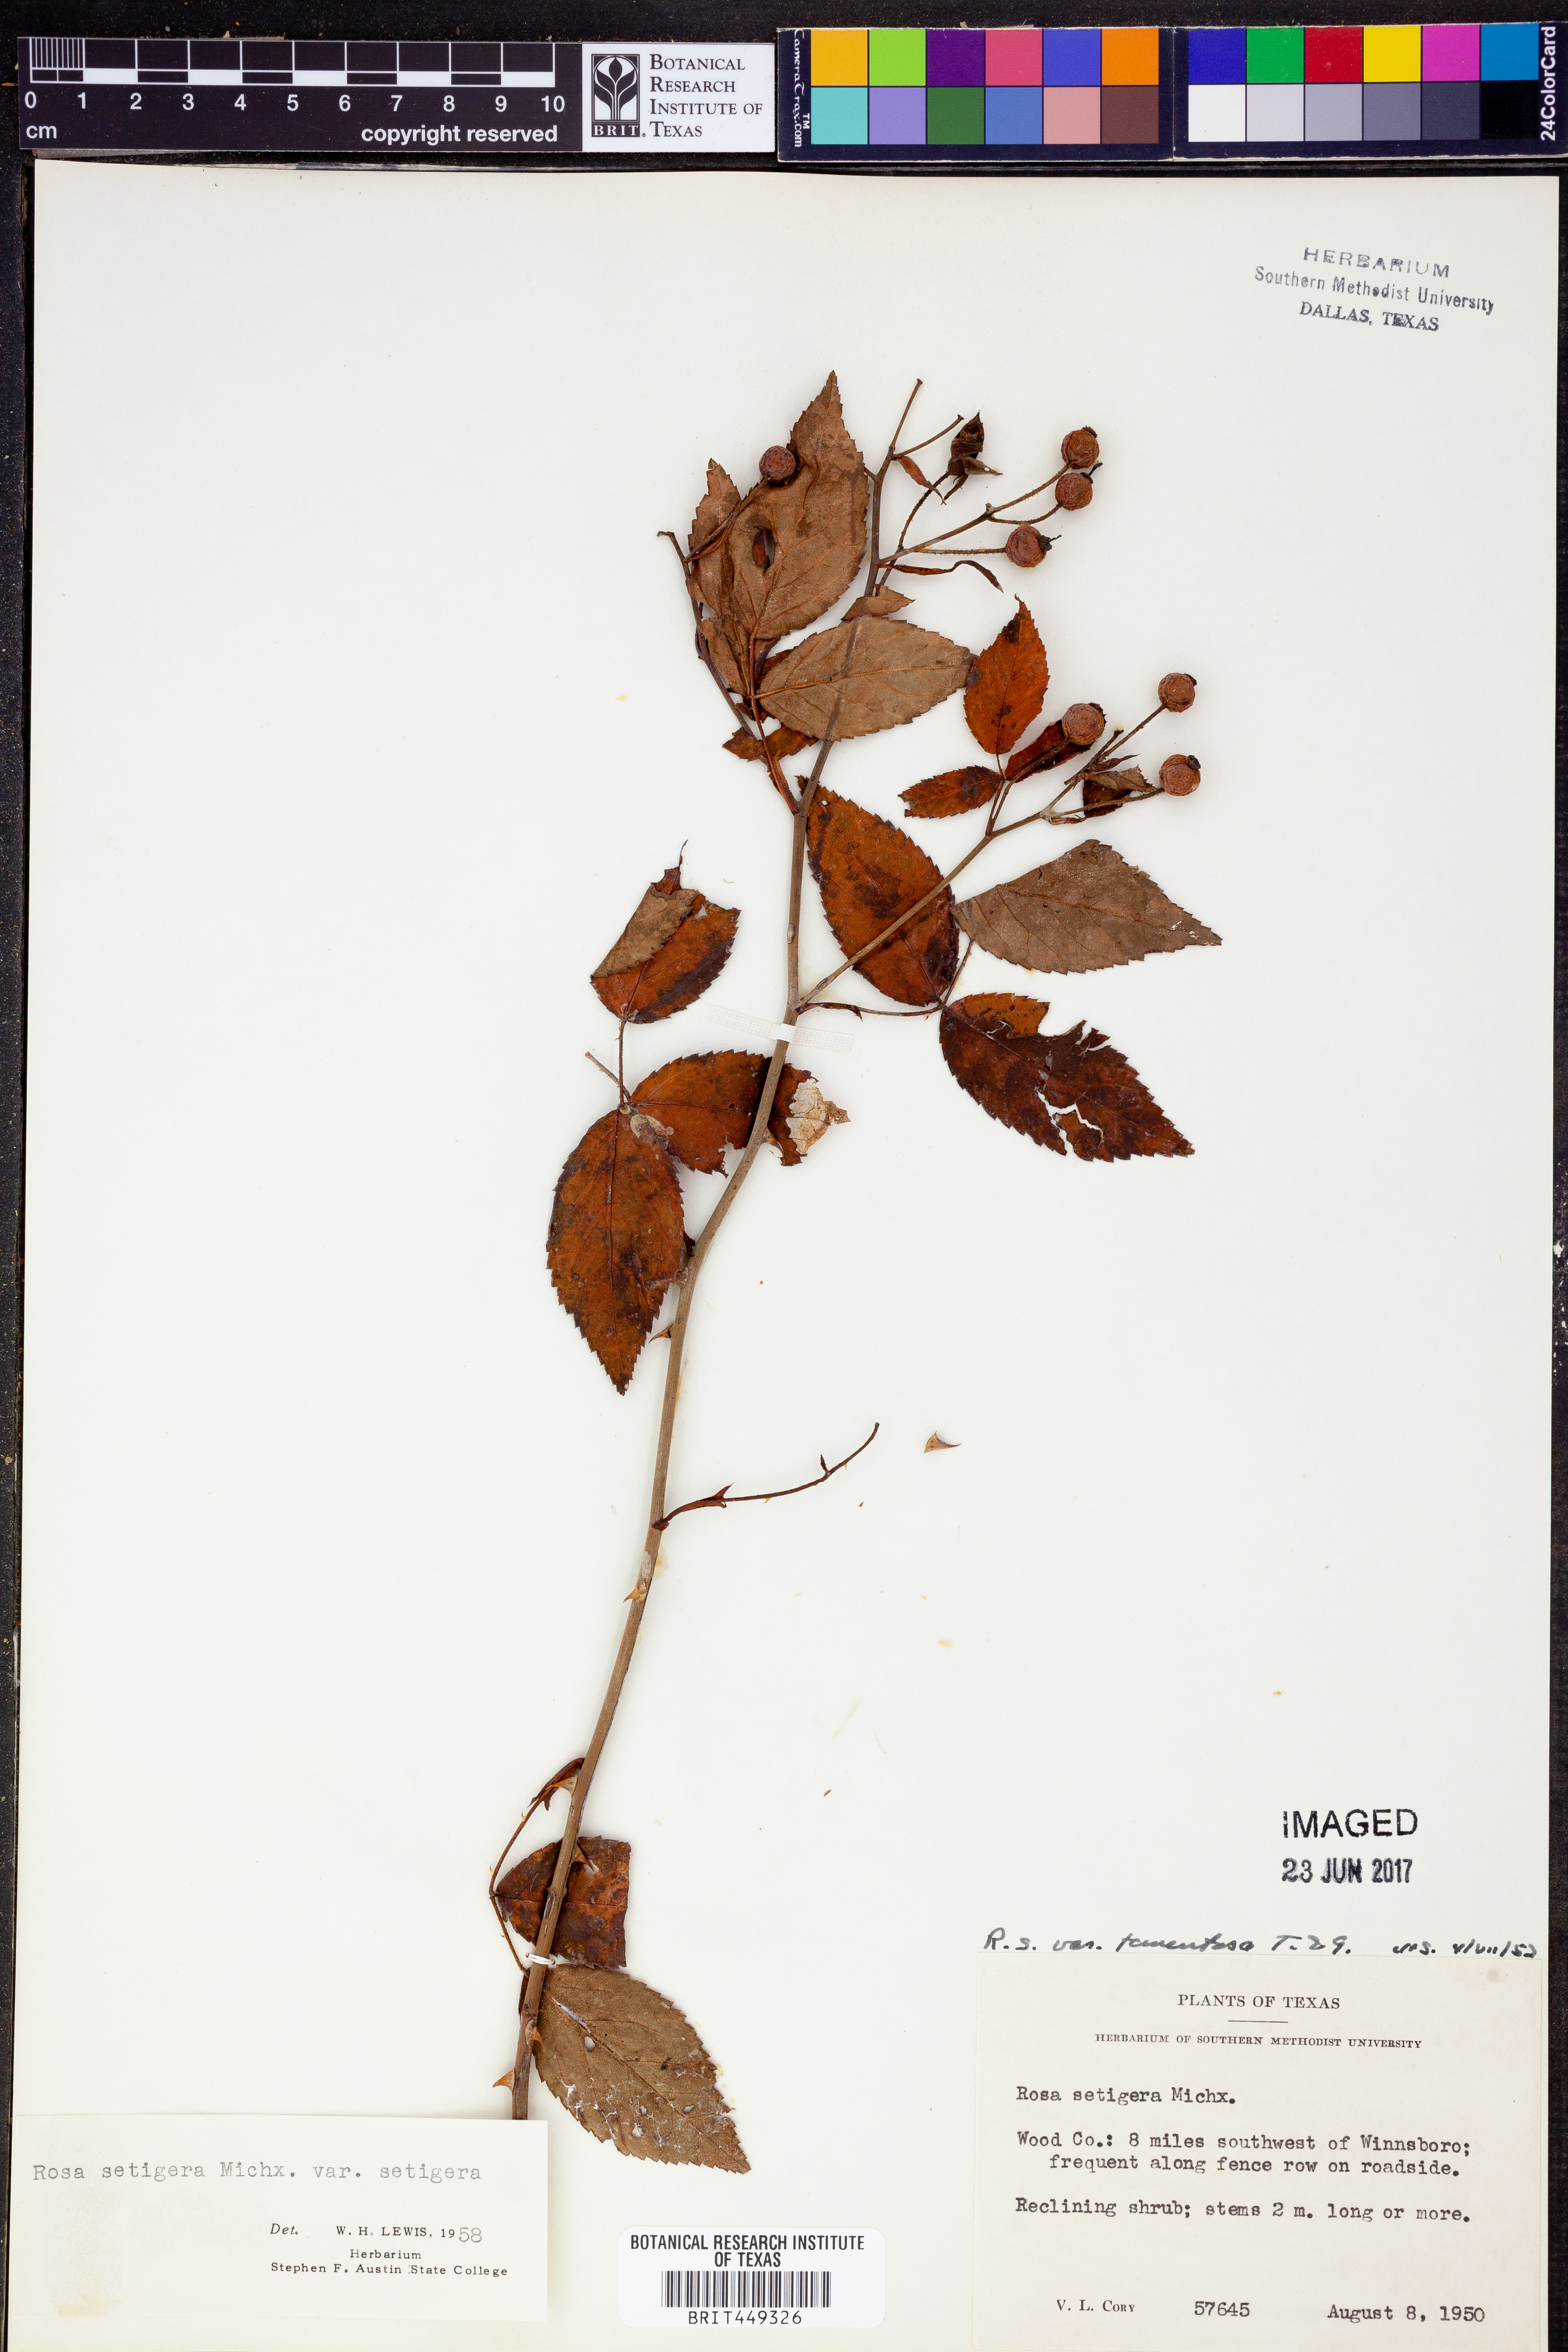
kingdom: Plantae
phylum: Tracheophyta
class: Magnoliopsida
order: Rosales
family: Rosaceae
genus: Rosa
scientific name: Rosa setigera
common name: Prairie rose
